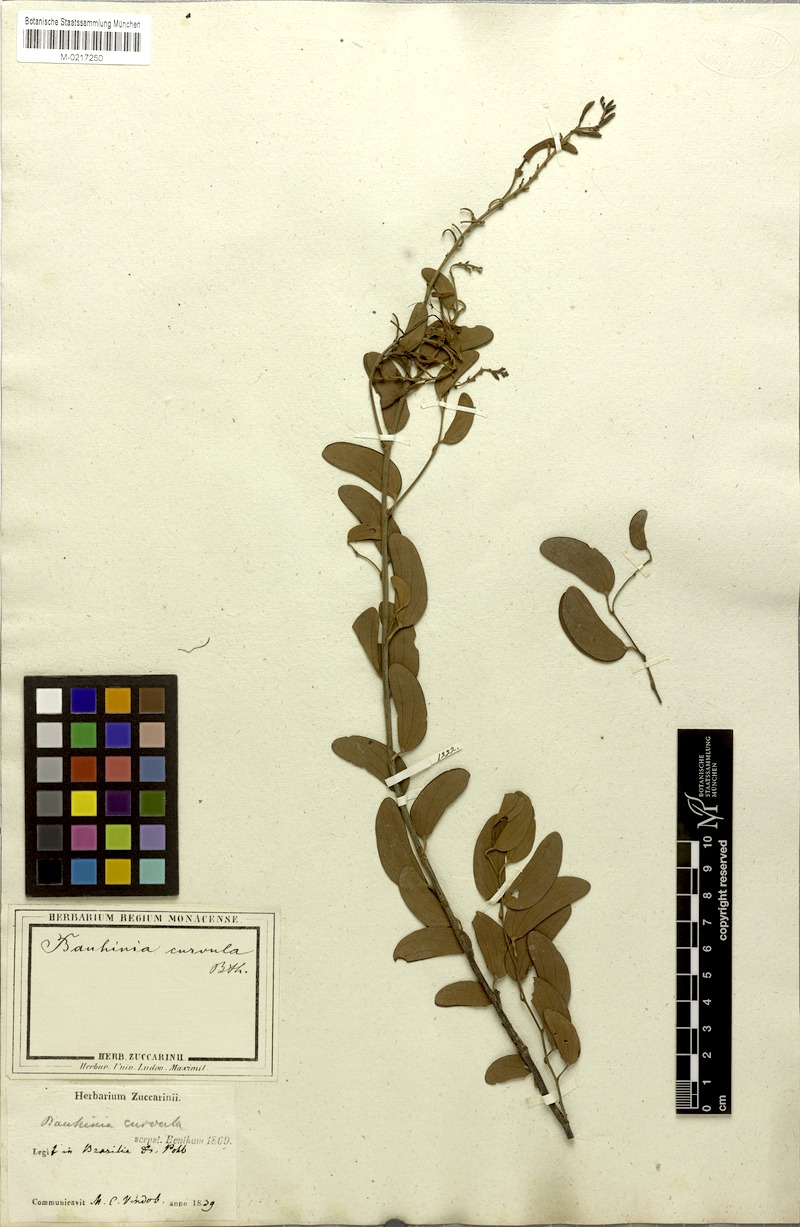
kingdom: Plantae
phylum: Tracheophyta
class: Magnoliopsida
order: Fabales
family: Fabaceae
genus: Bauhinia
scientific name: Bauhinia curvula
